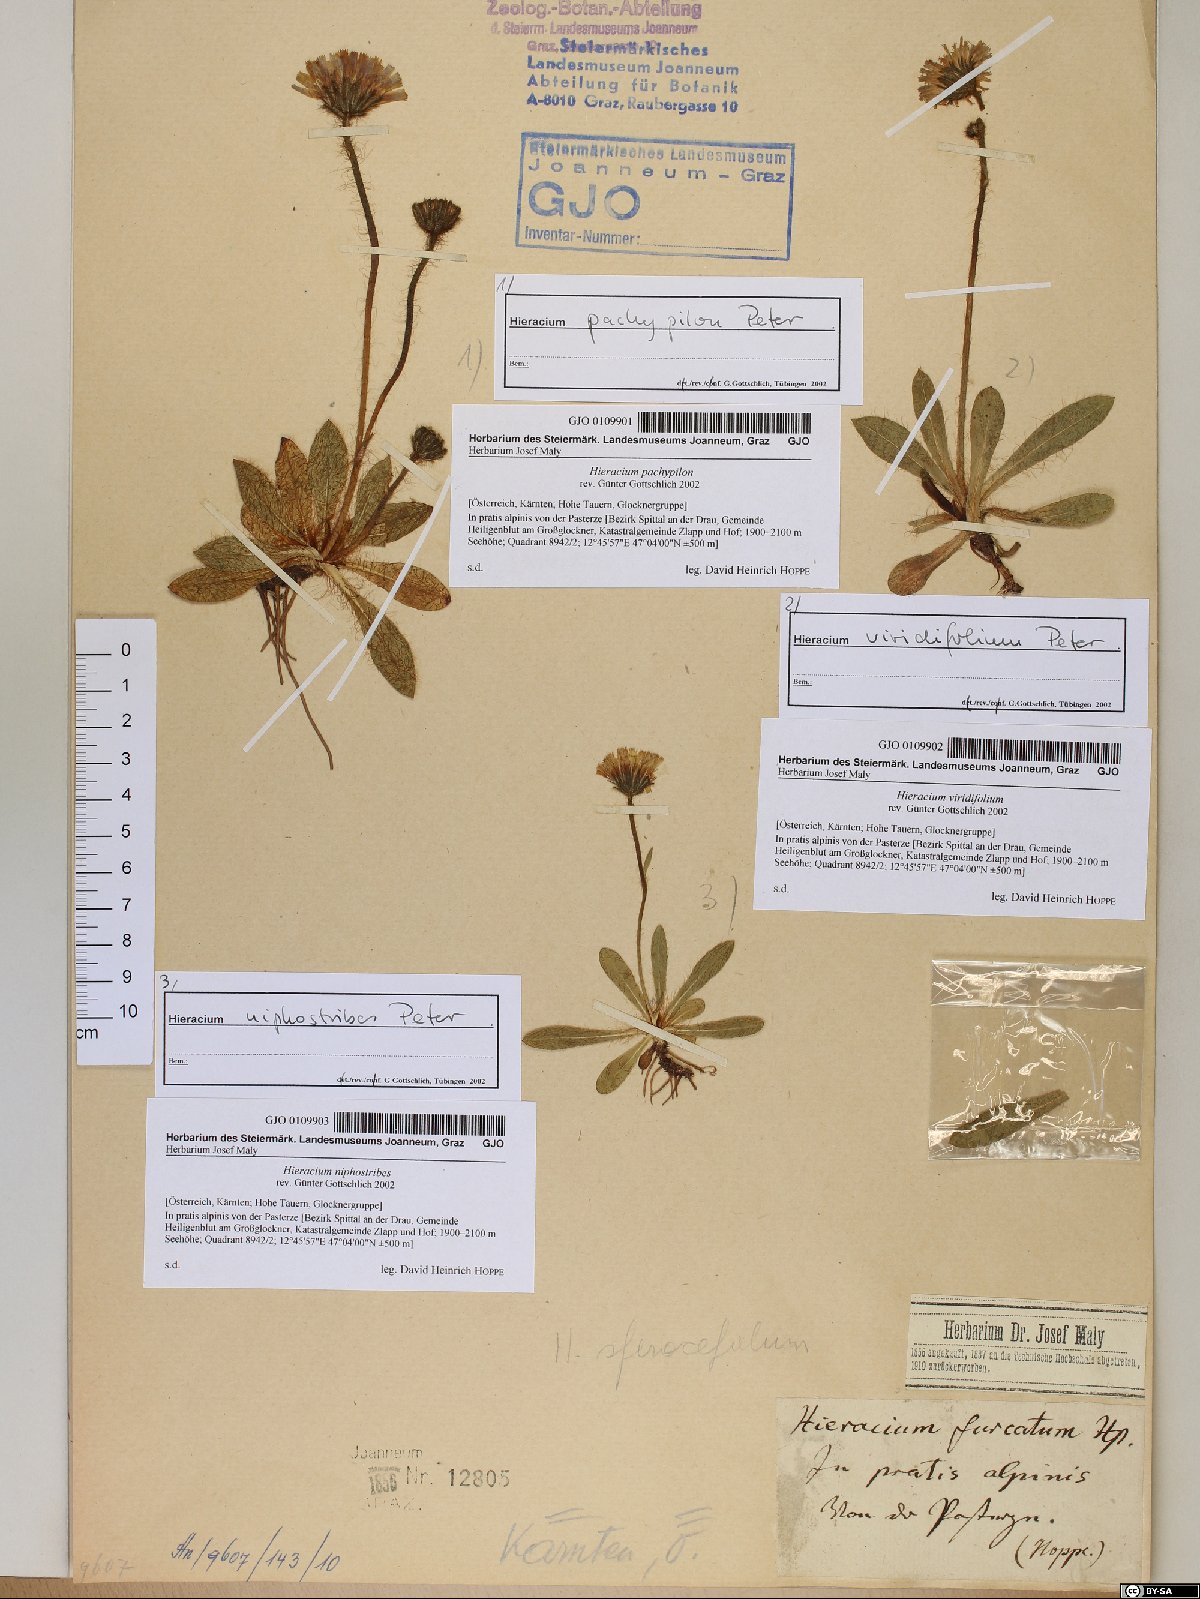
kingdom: Plantae
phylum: Tracheophyta
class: Magnoliopsida
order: Asterales
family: Asteraceae
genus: Pilosella
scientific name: Pilosella pachypila
